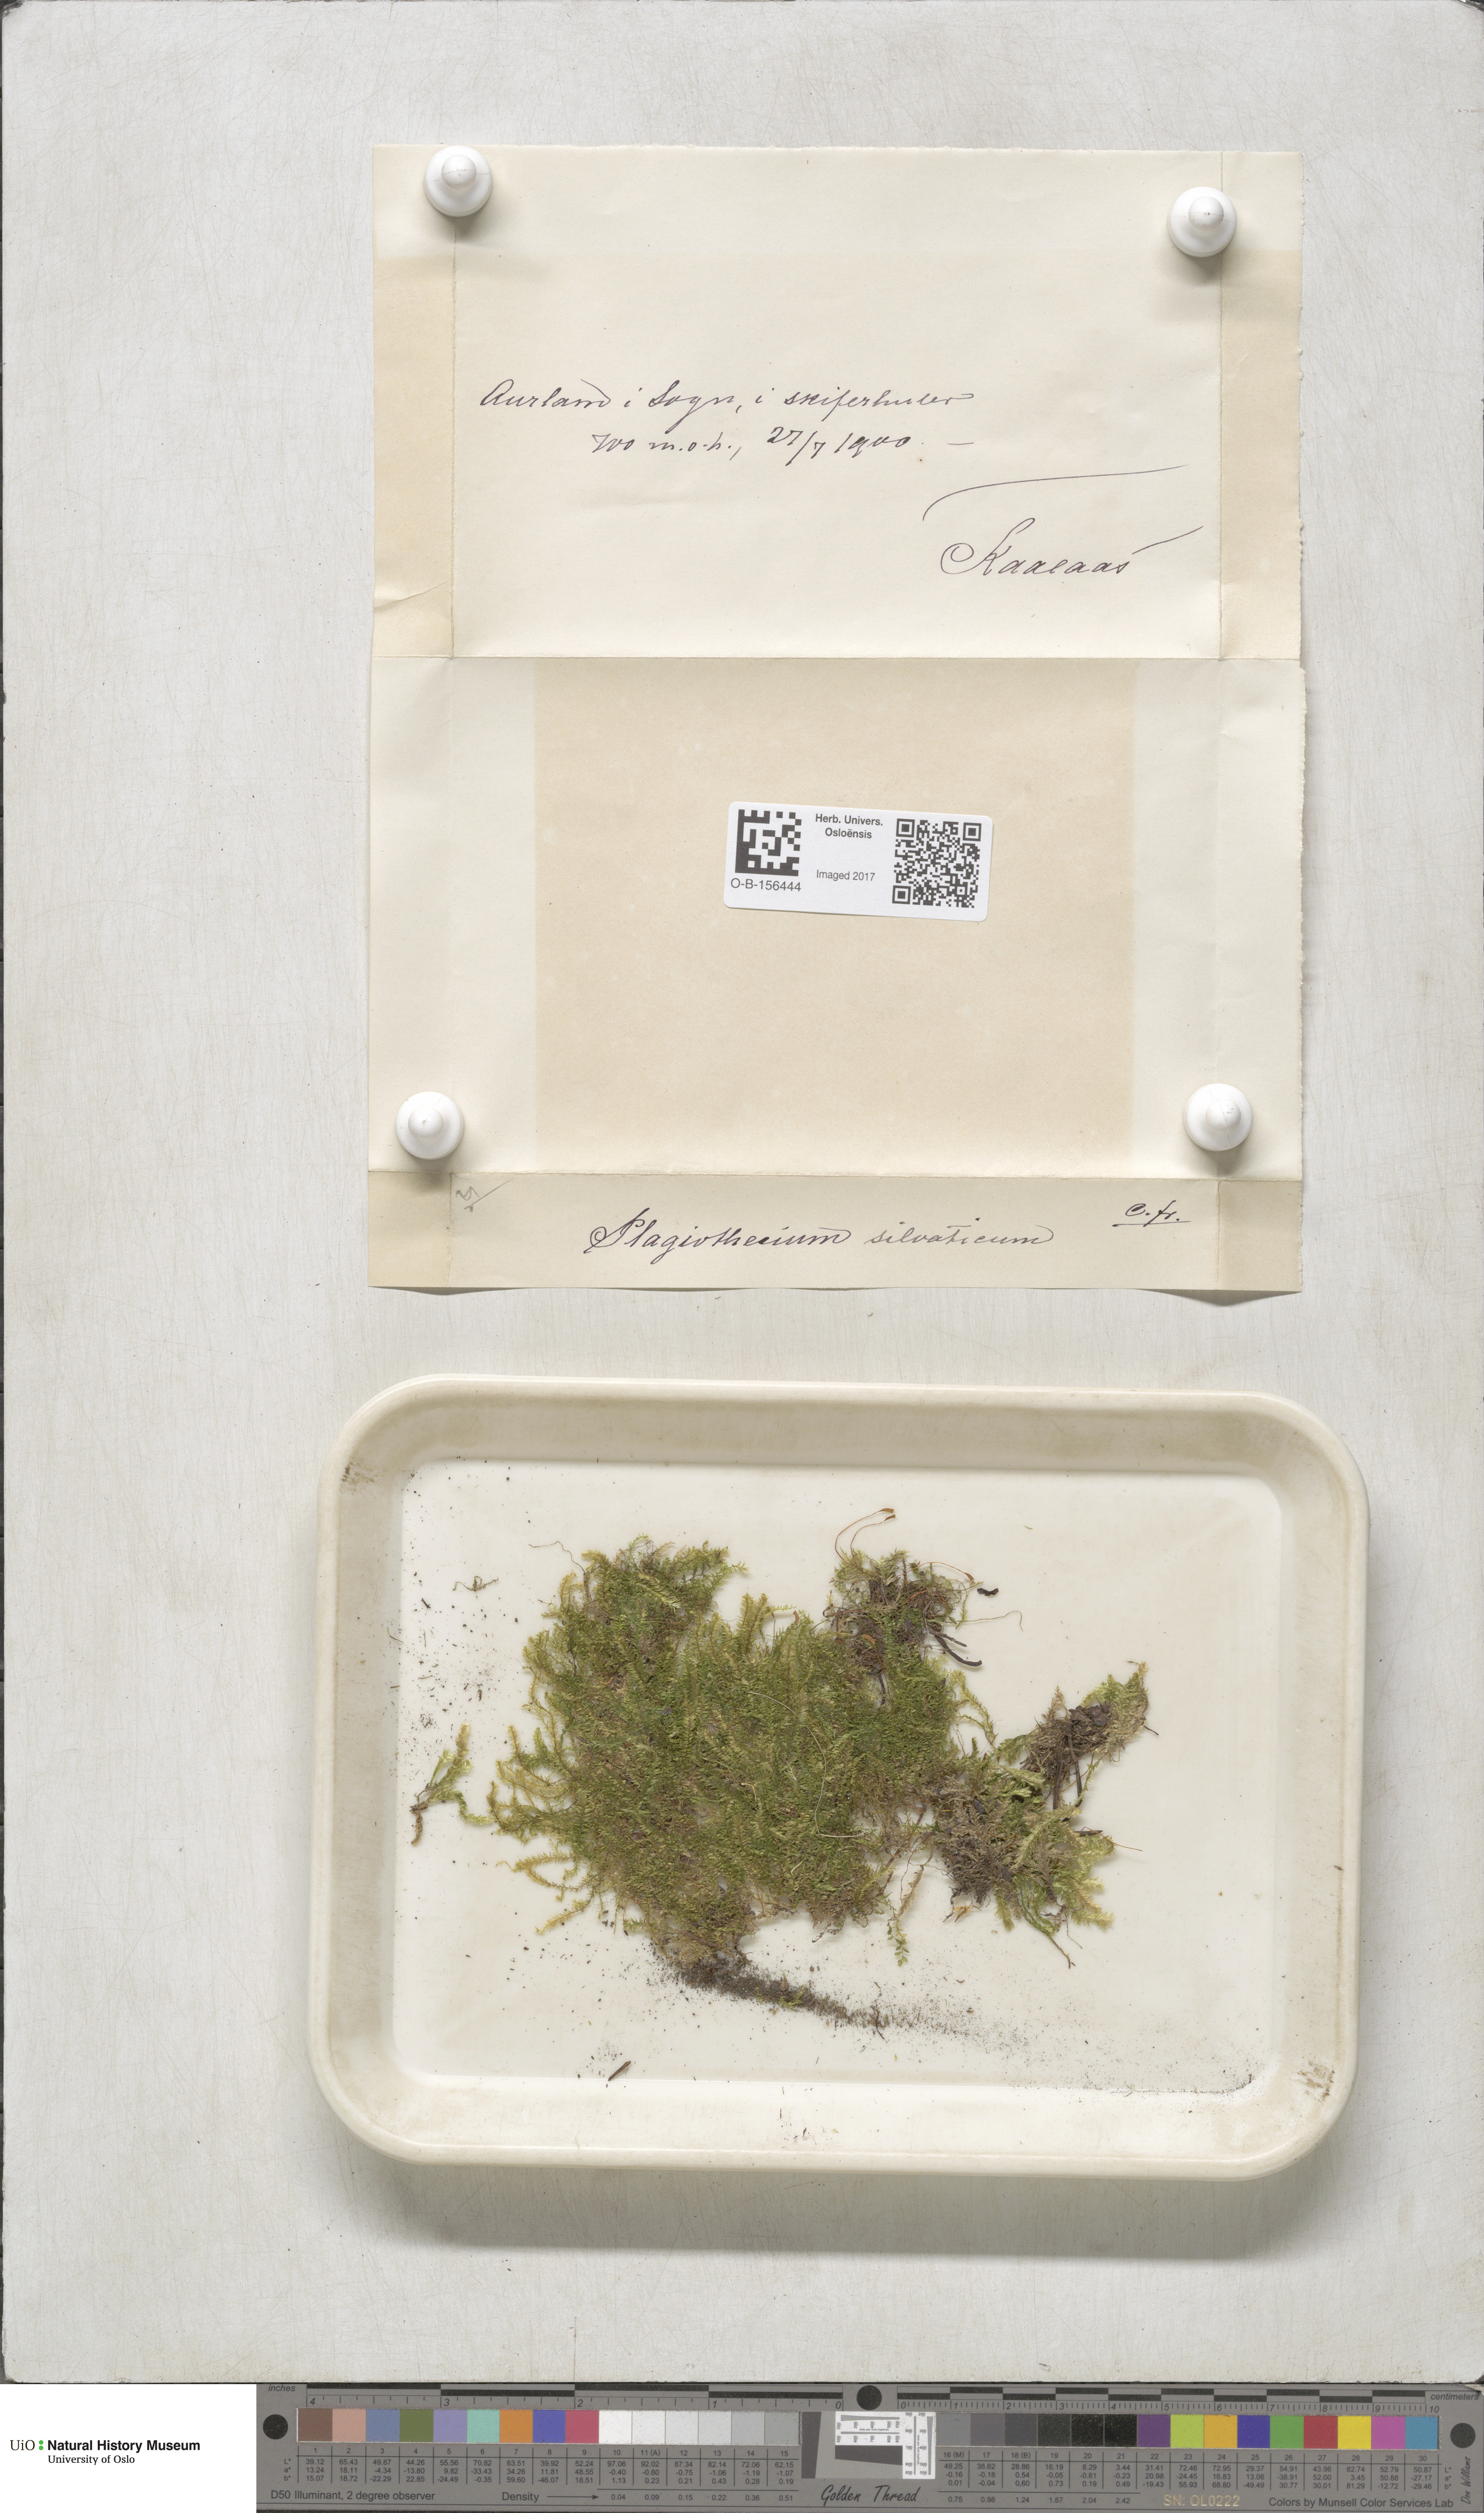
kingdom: Plantae
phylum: Bryophyta
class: Bryopsida
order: Hypnales
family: Plagiotheciaceae
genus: Plagiothecium
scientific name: Plagiothecium nemorale
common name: Woodsy silk-moss
